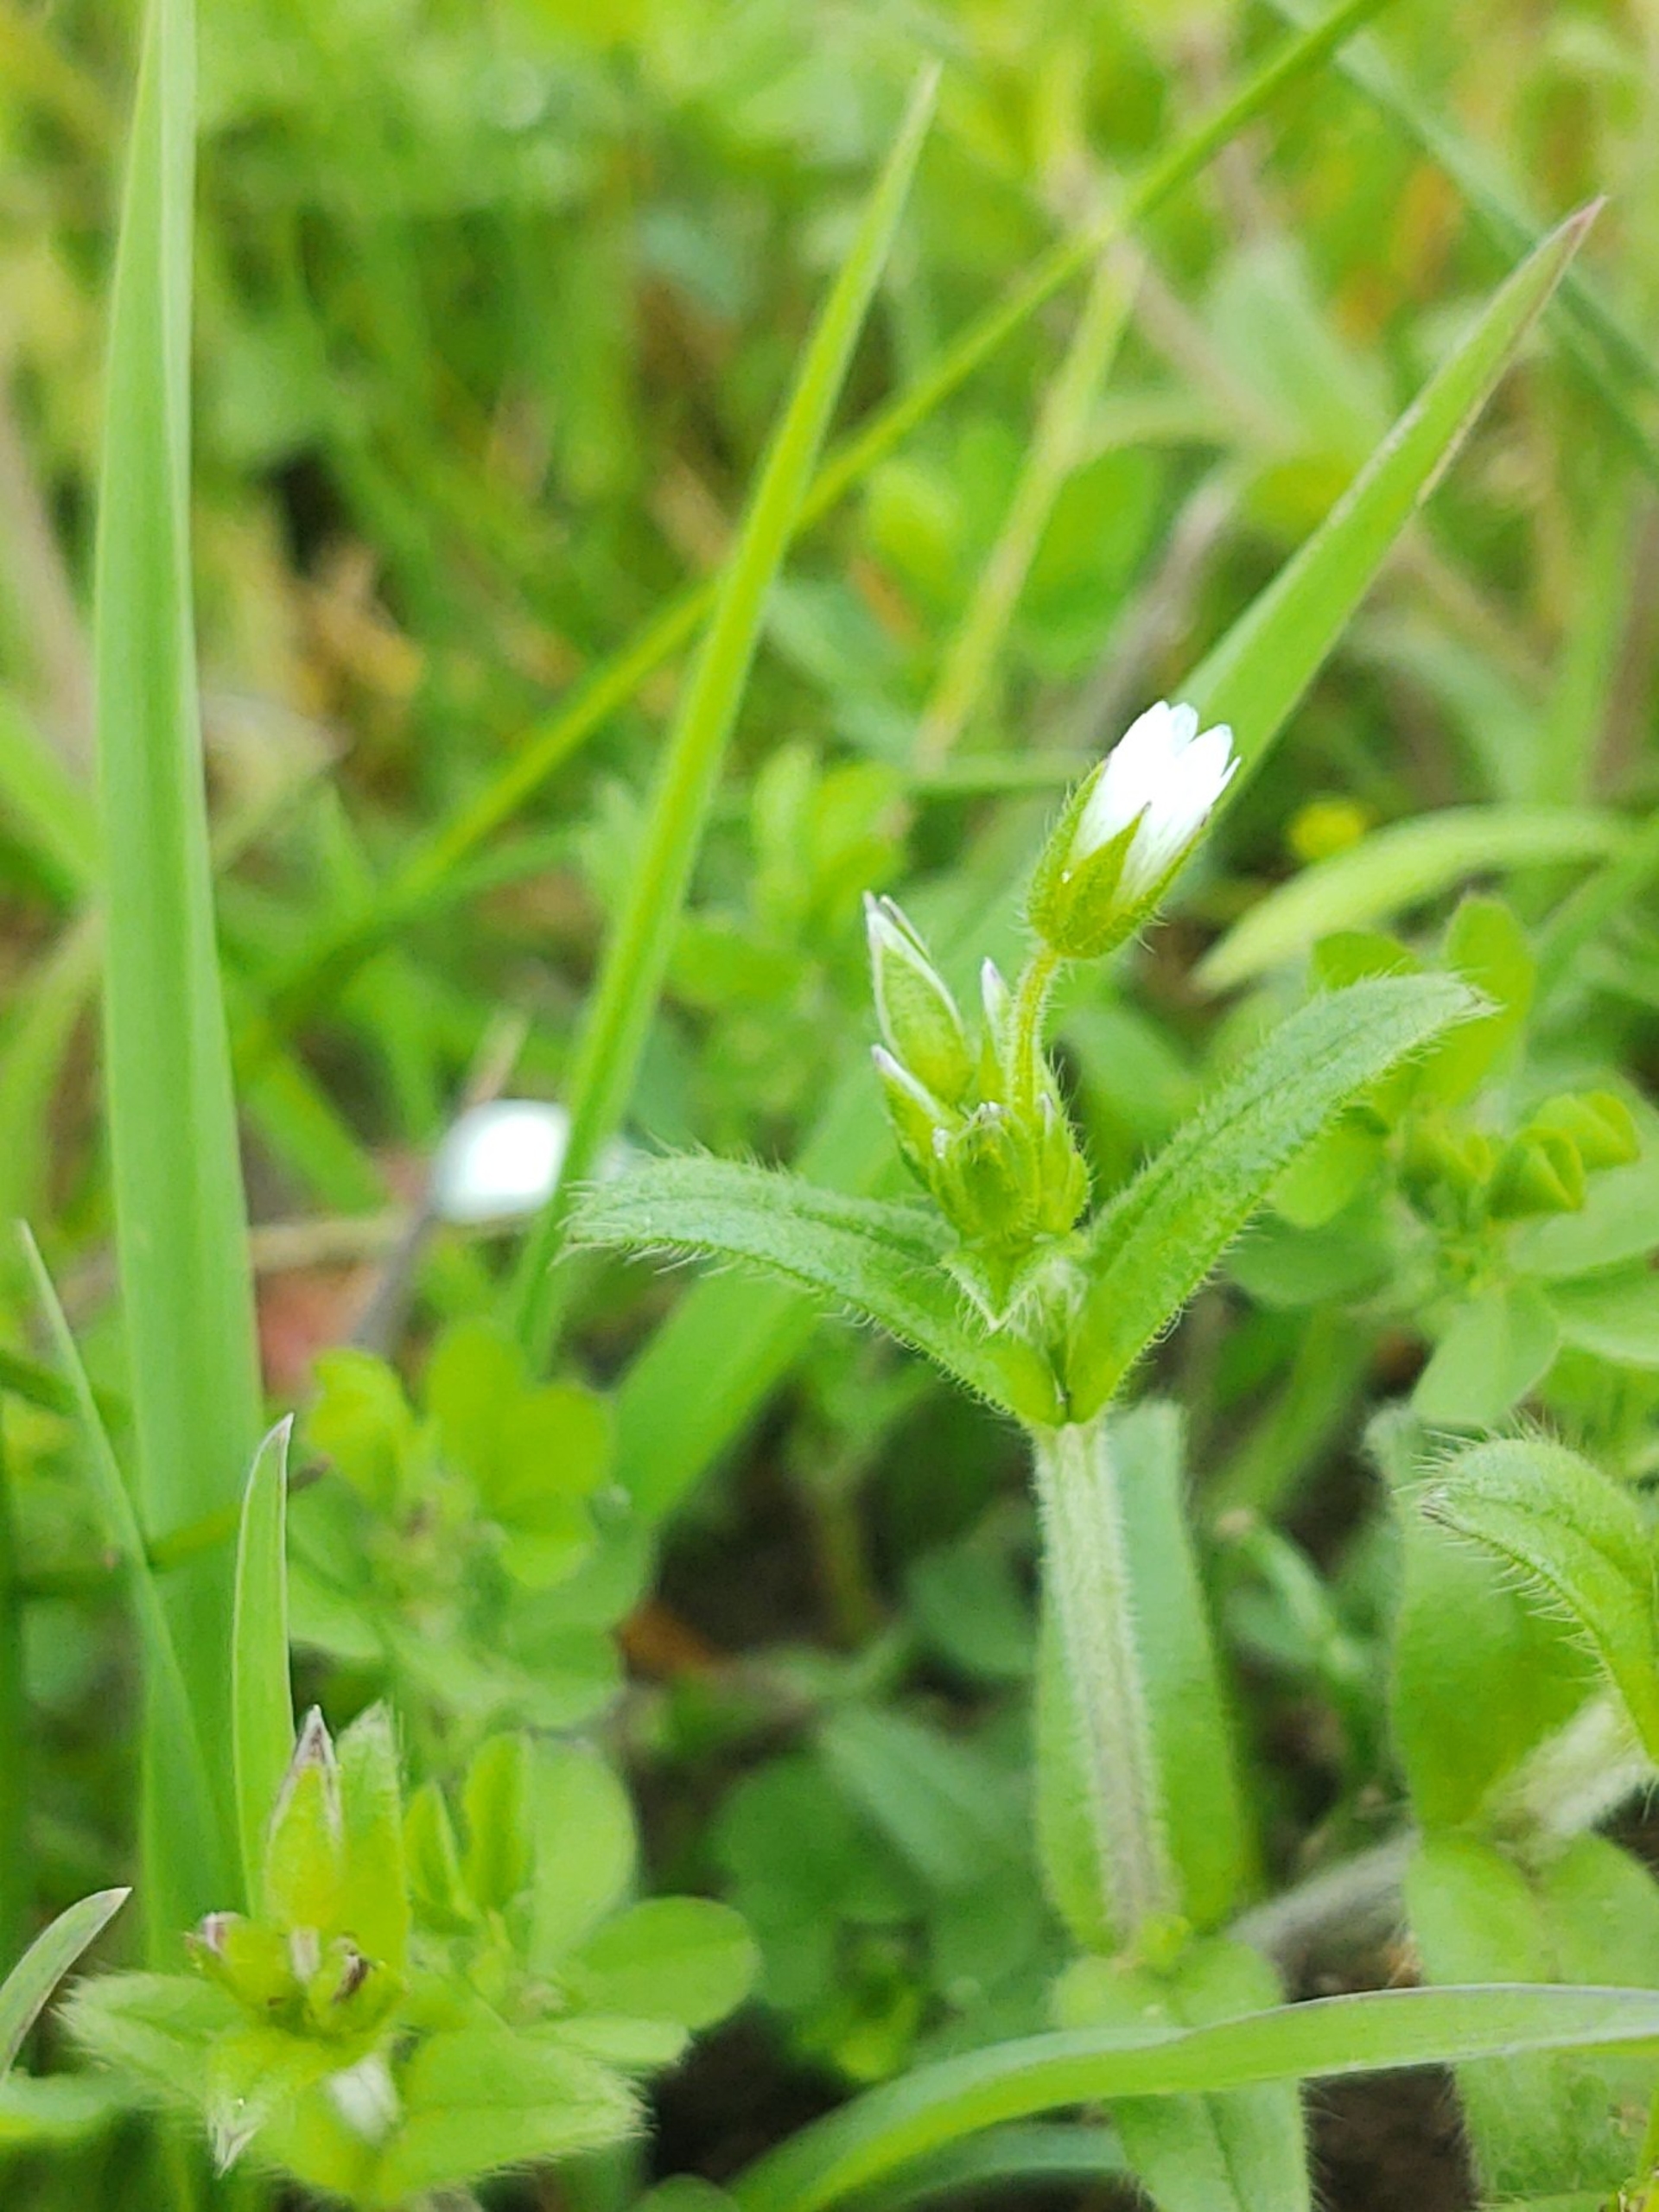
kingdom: Plantae
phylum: Tracheophyta
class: Magnoliopsida
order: Caryophyllales
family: Caryophyllaceae
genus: Cerastium
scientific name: Cerastium fontanum
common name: Almindelig hønsetarm
